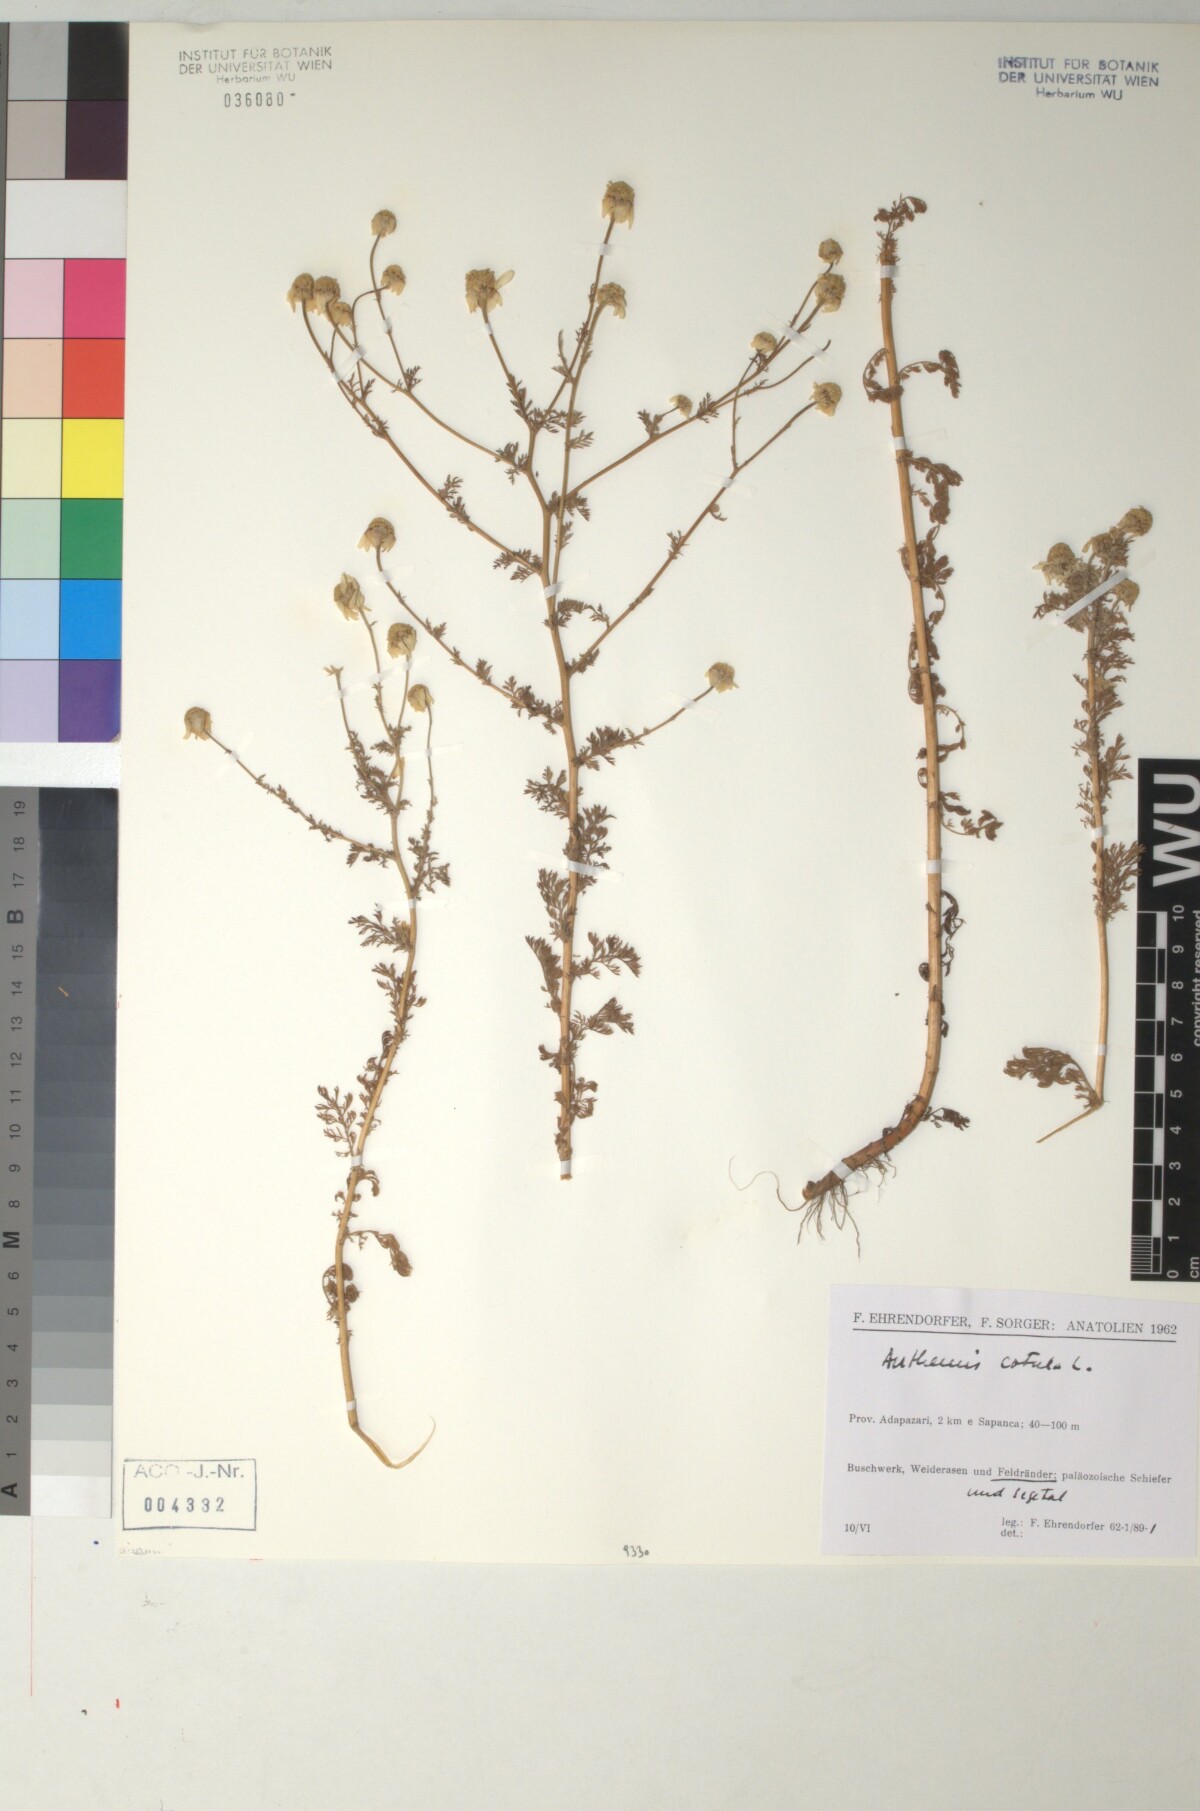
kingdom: Plantae
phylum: Tracheophyta
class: Magnoliopsida
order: Asterales
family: Asteraceae
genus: Anthemis
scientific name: Anthemis cotula
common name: Stinking chamomile
